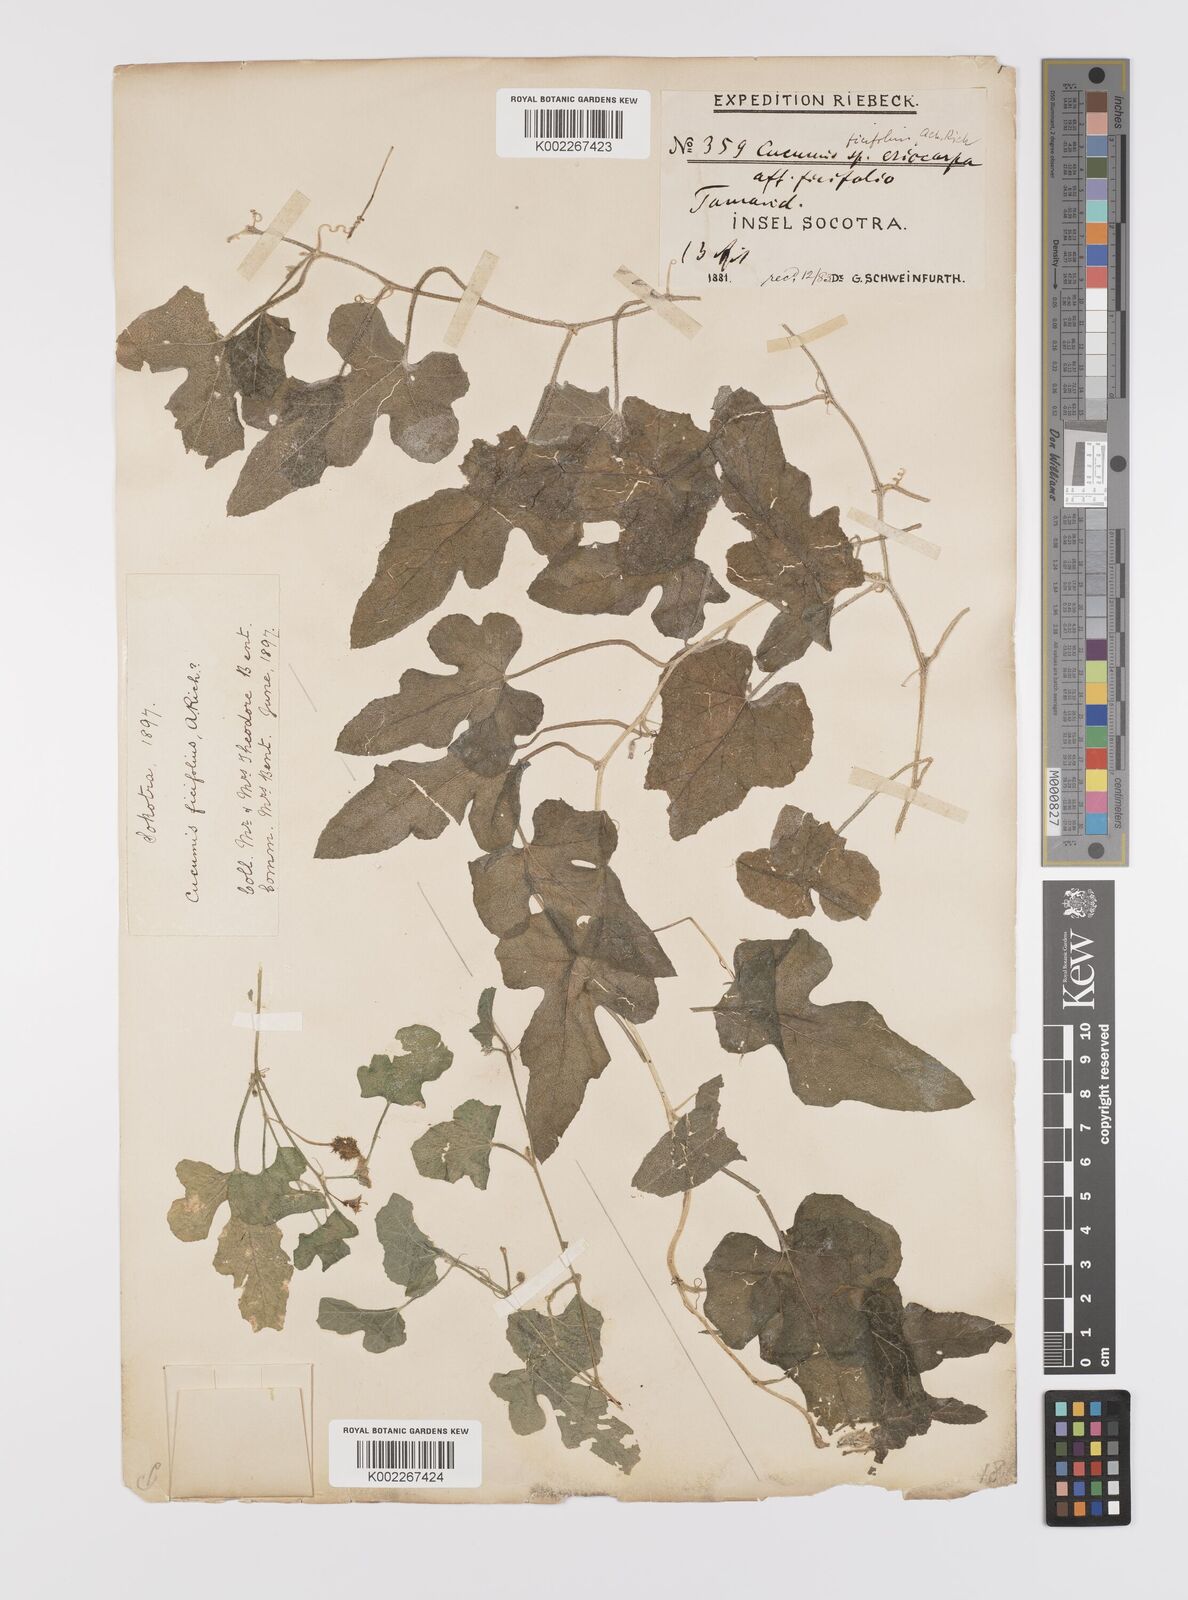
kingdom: Plantae
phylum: Tracheophyta
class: Magnoliopsida
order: Cucurbitales
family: Cucurbitaceae
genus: Cucumis
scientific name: Cucumis ficifolius
